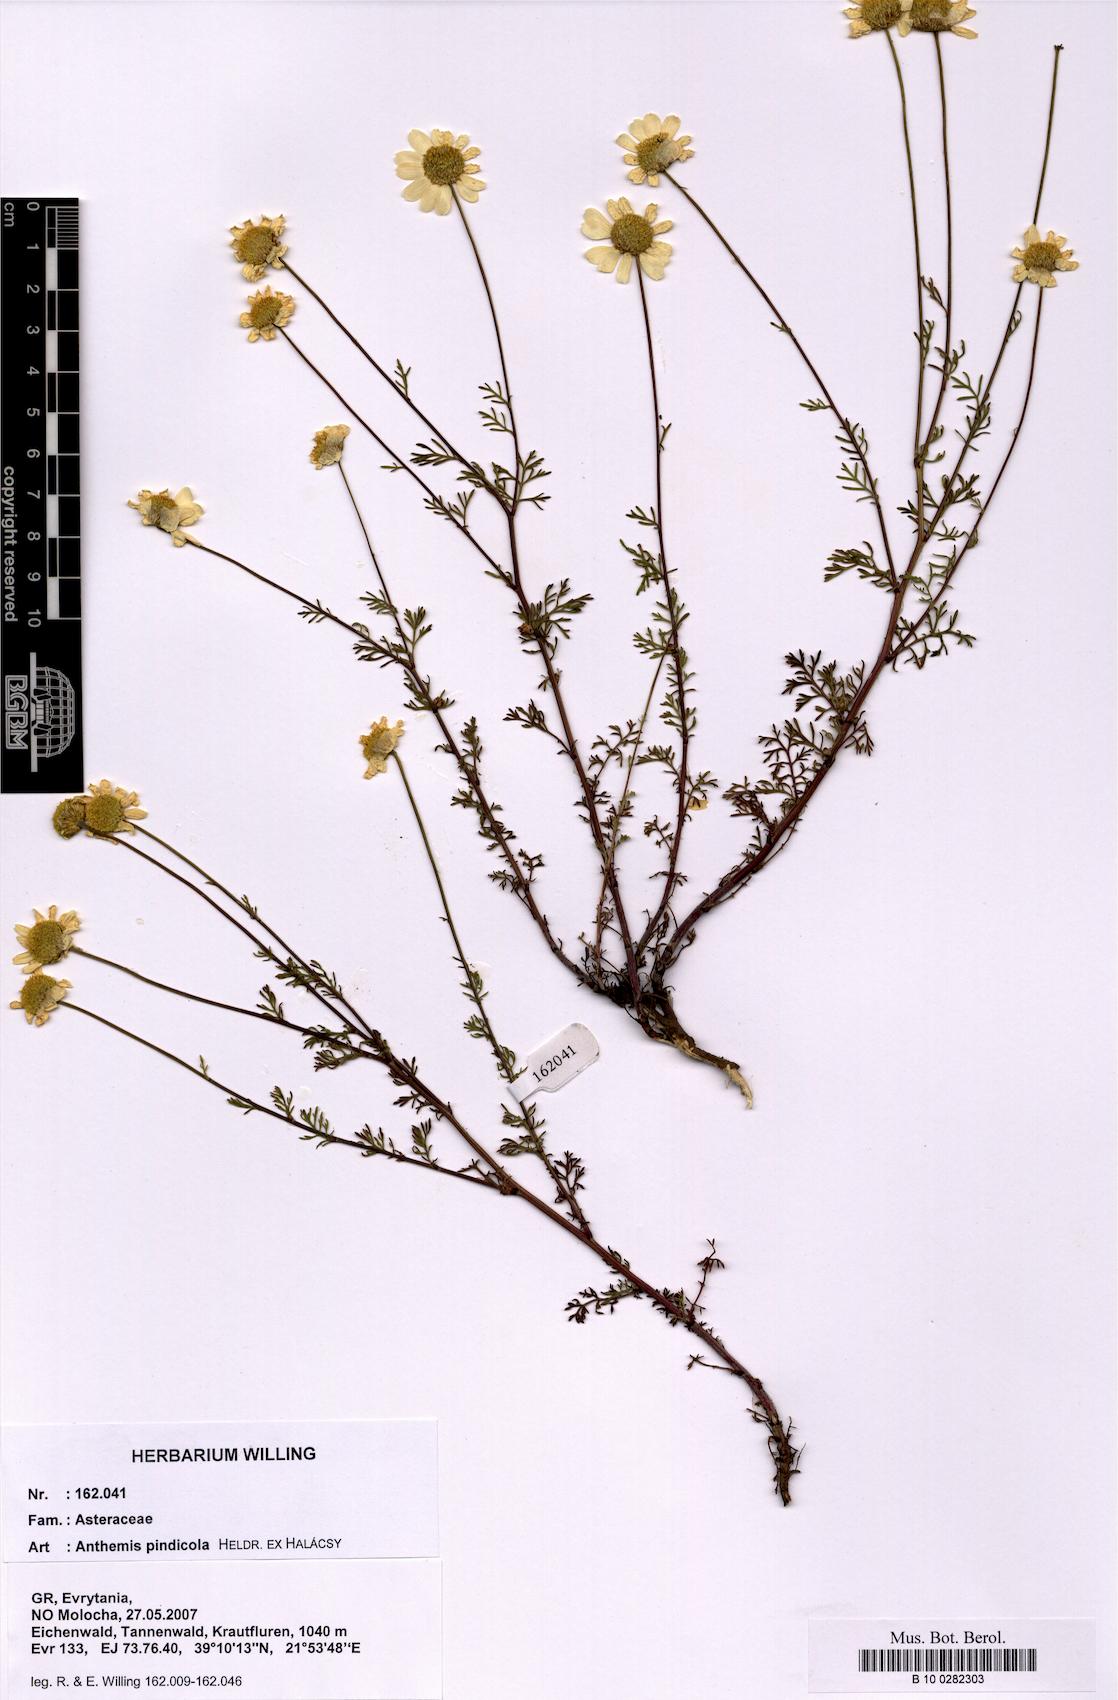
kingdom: Plantae
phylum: Tracheophyta
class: Magnoliopsida
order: Asterales
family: Asteraceae
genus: Anthemis
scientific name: Anthemis pindicola
